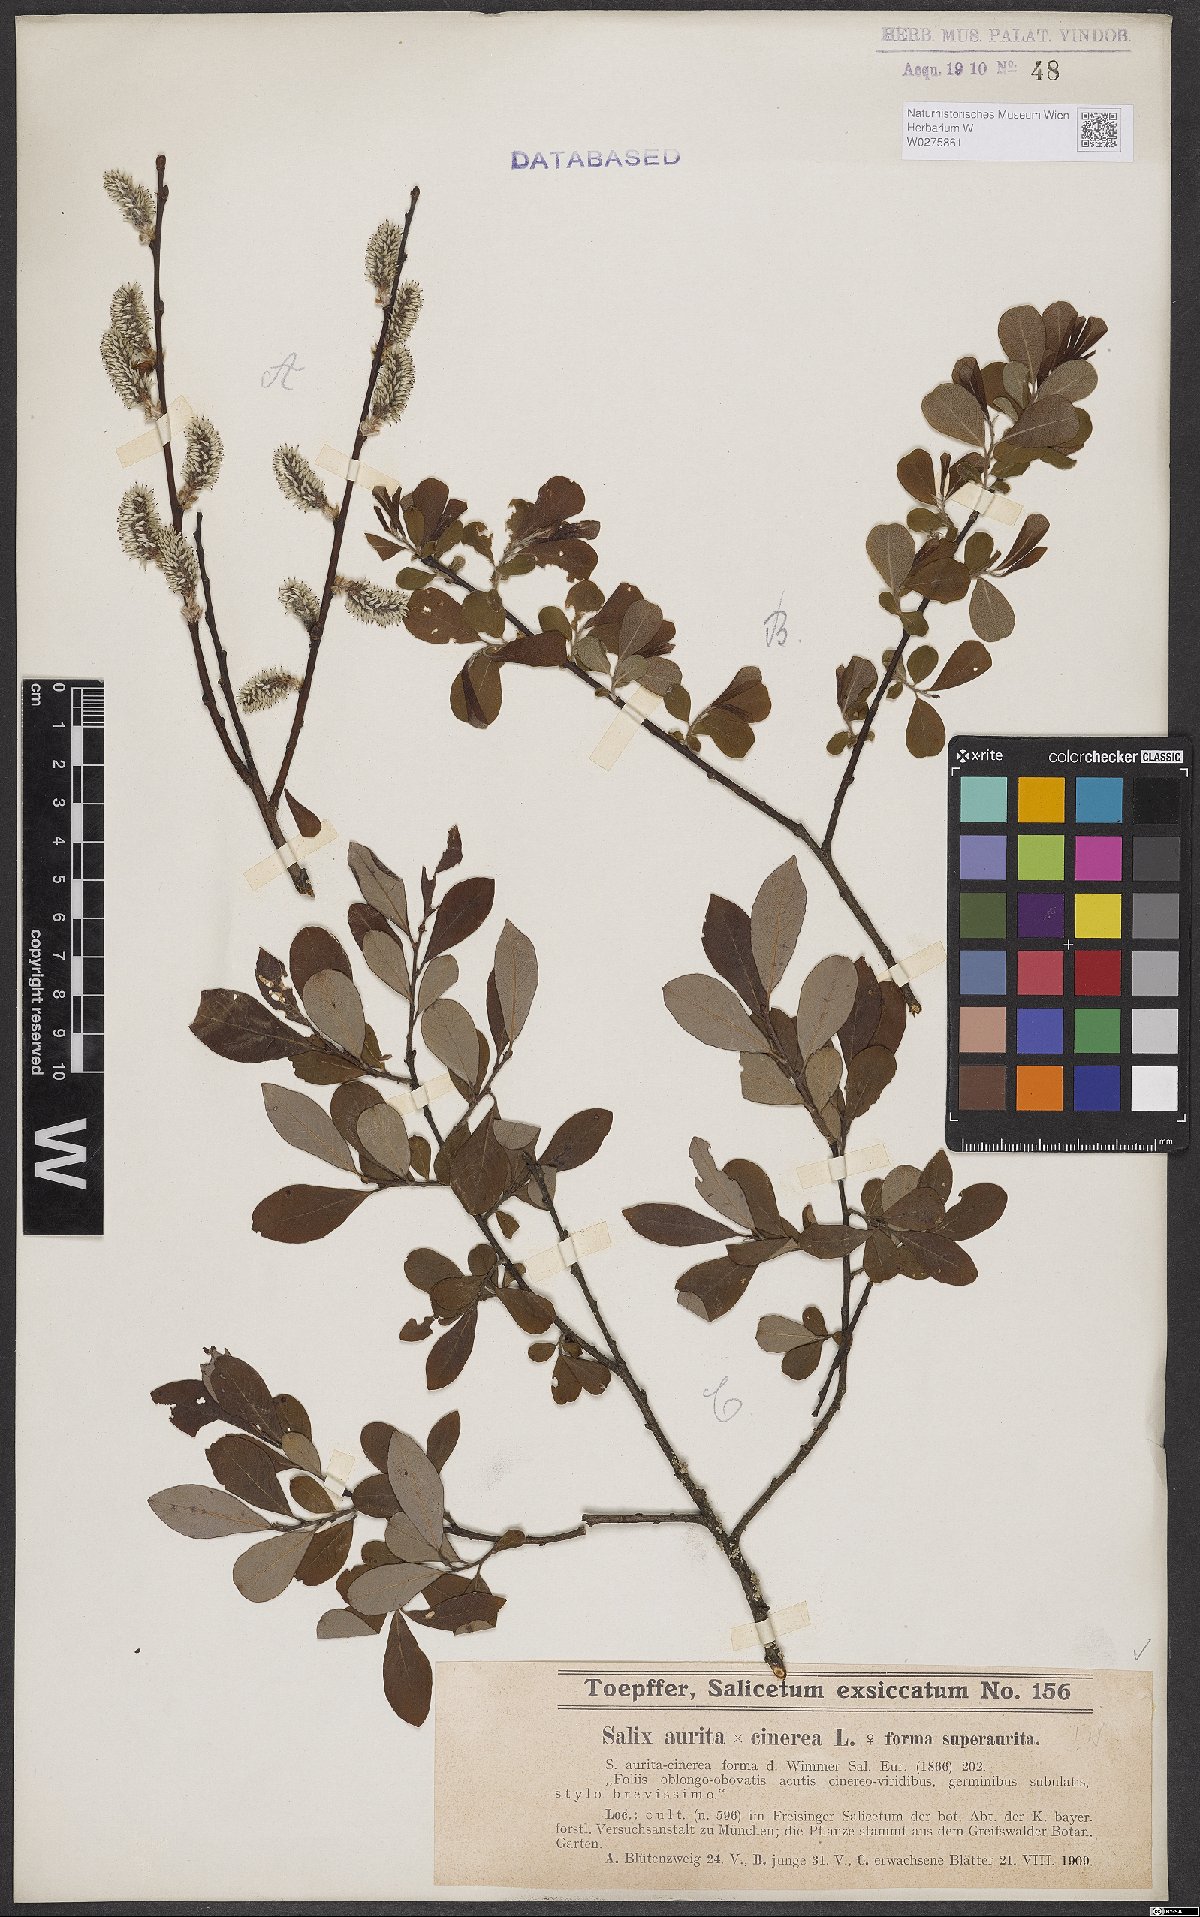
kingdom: Plantae
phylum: Tracheophyta
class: Magnoliopsida
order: Malpighiales
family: Salicaceae
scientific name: Salicaceae
